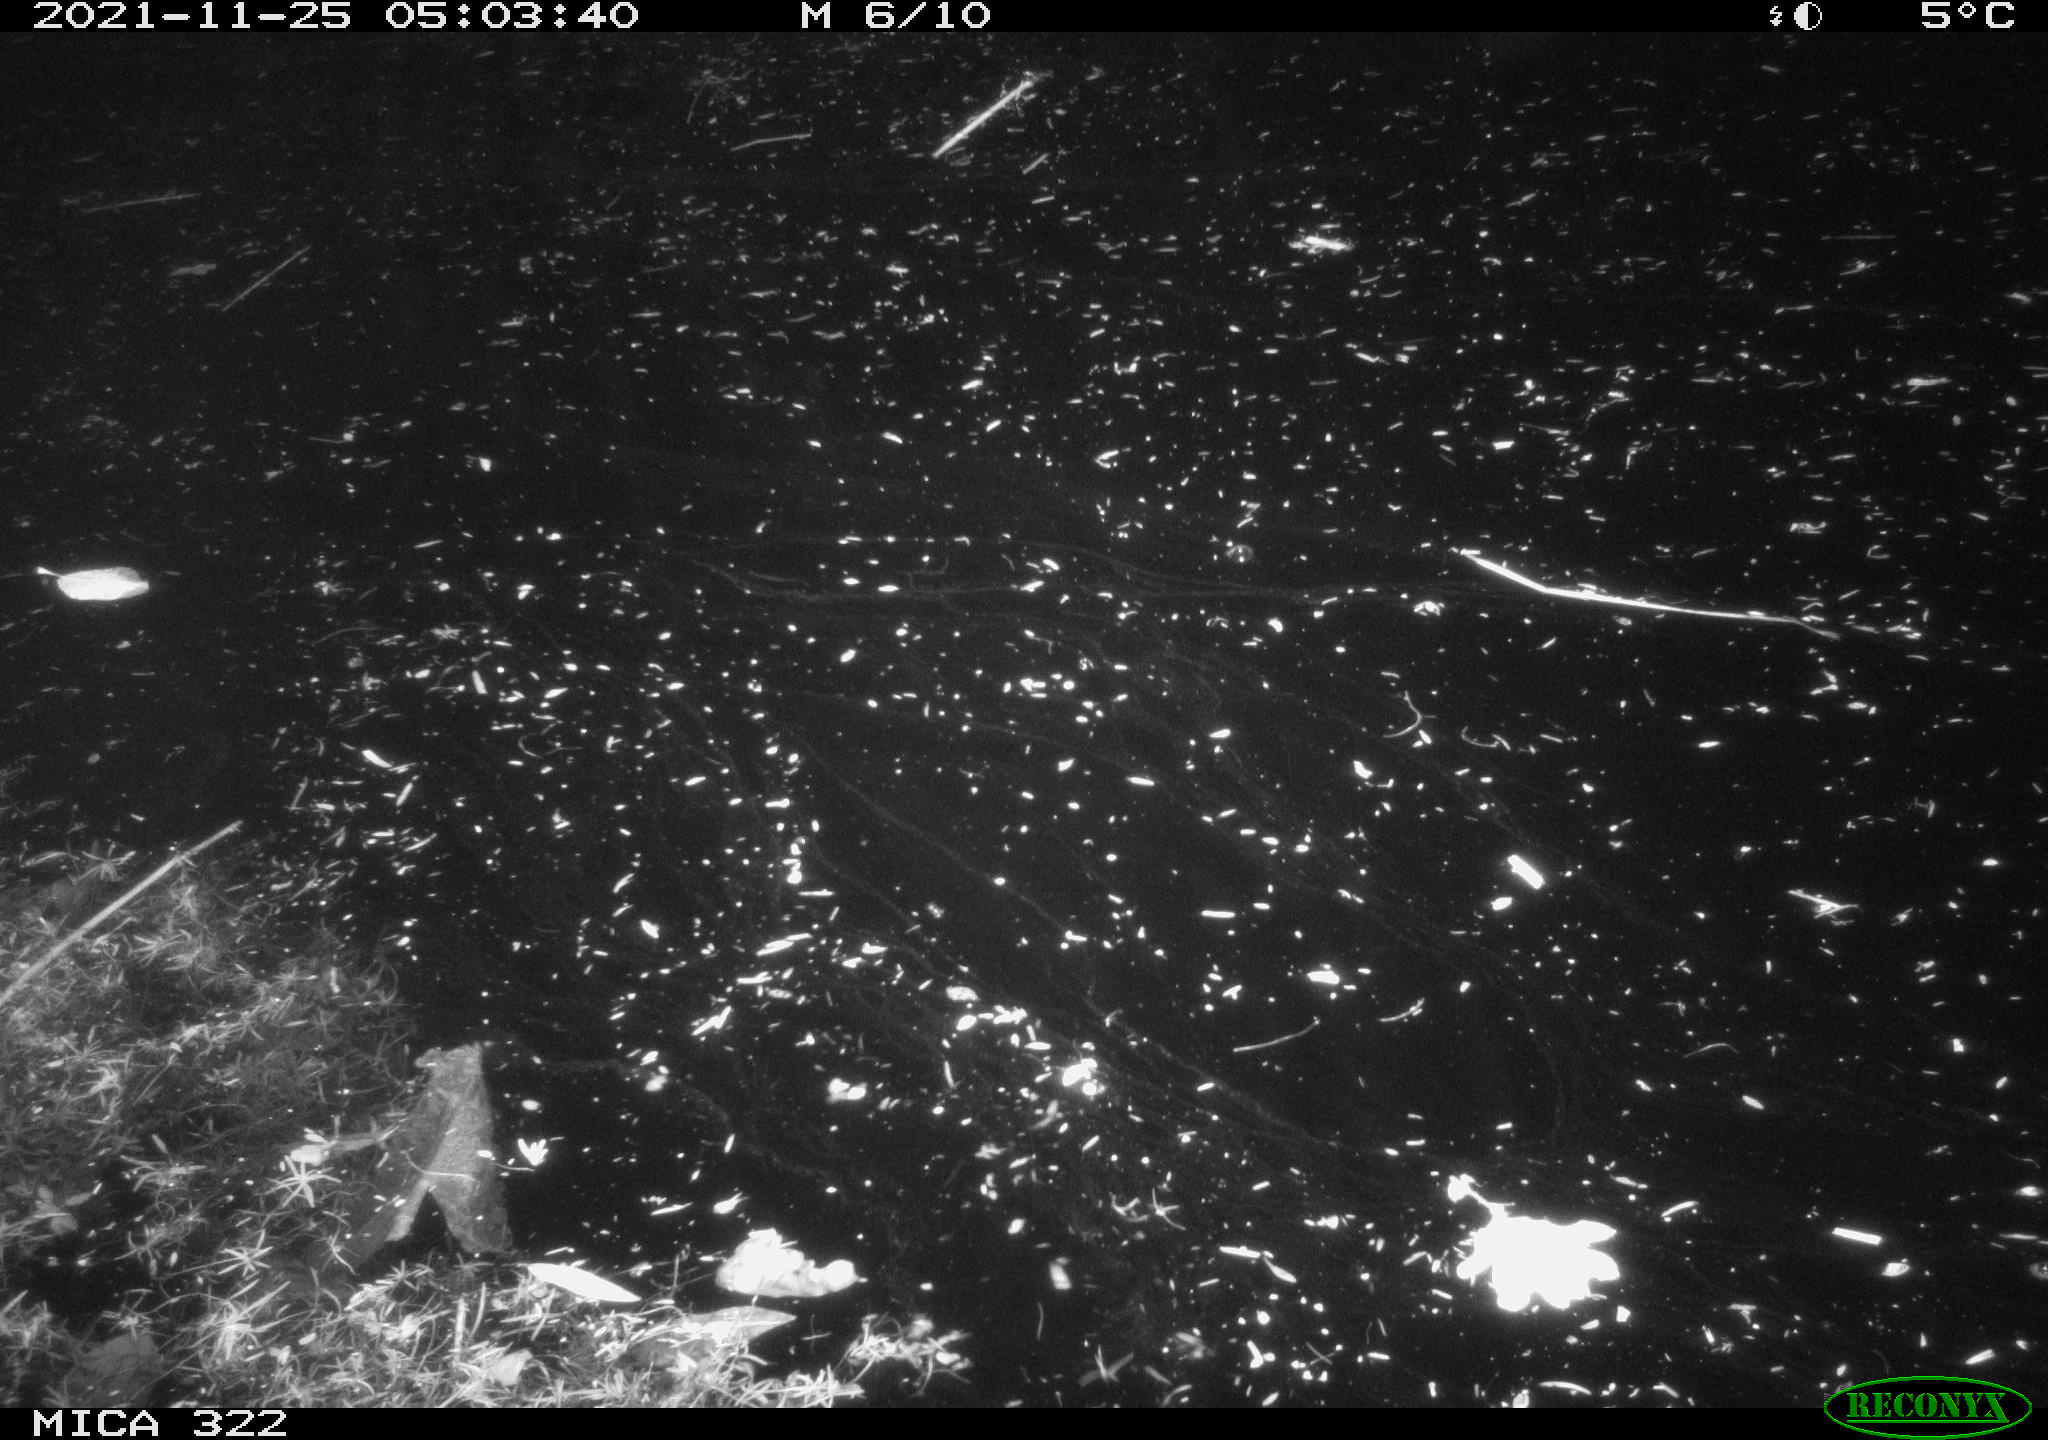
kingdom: Animalia
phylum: Chordata
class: Mammalia
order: Rodentia
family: Muridae
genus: Rattus
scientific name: Rattus norvegicus
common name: Brown rat
